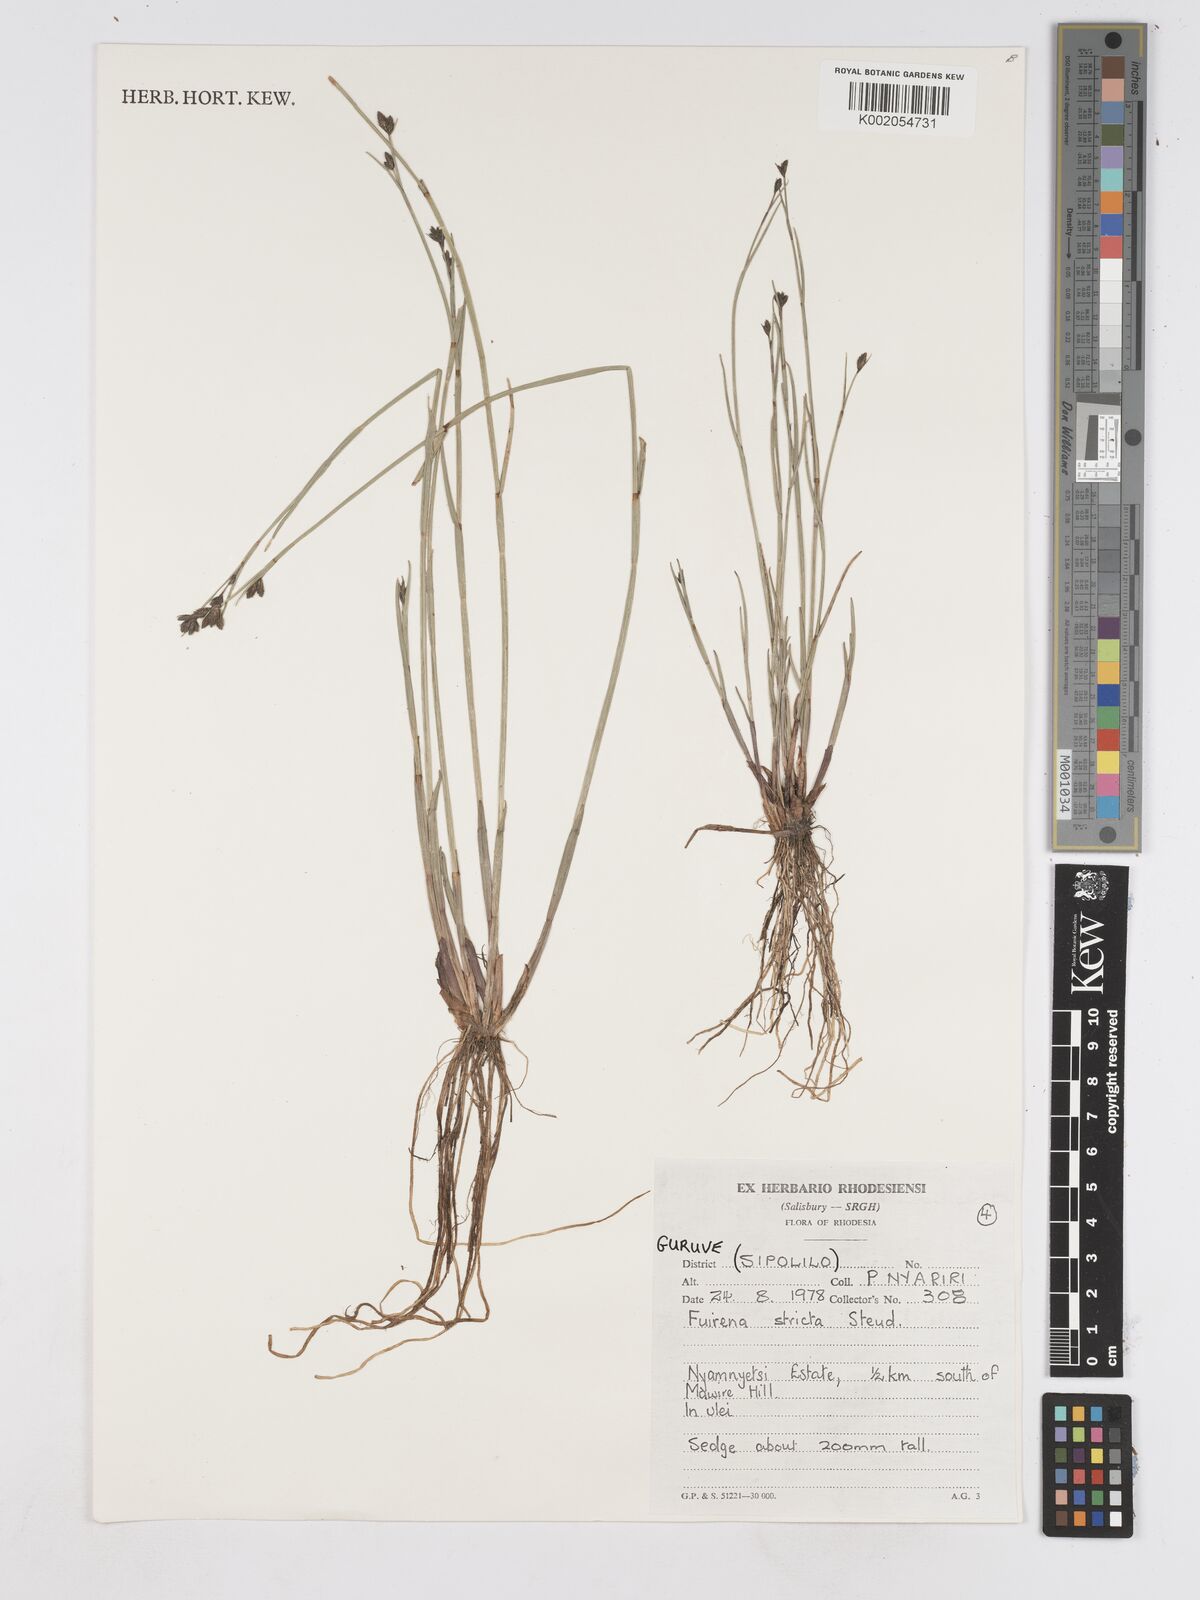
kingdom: Plantae
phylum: Tracheophyta
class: Liliopsida
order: Poales
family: Cyperaceae
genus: Fuirena
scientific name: Fuirena stricta
